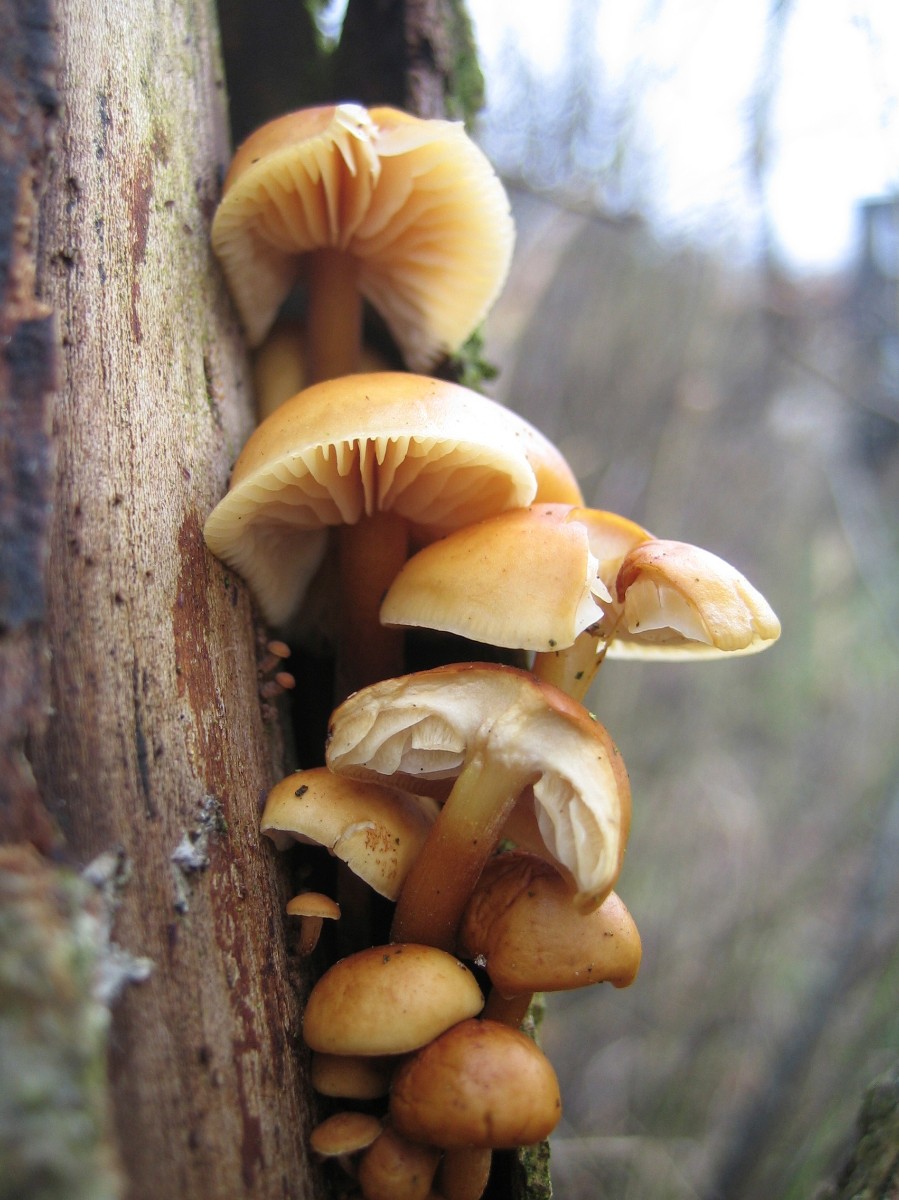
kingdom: Fungi
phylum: Basidiomycota
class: Agaricomycetes
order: Agaricales
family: Physalacriaceae
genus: Flammulina
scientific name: Flammulina velutipes
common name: gul fløjlsfod
